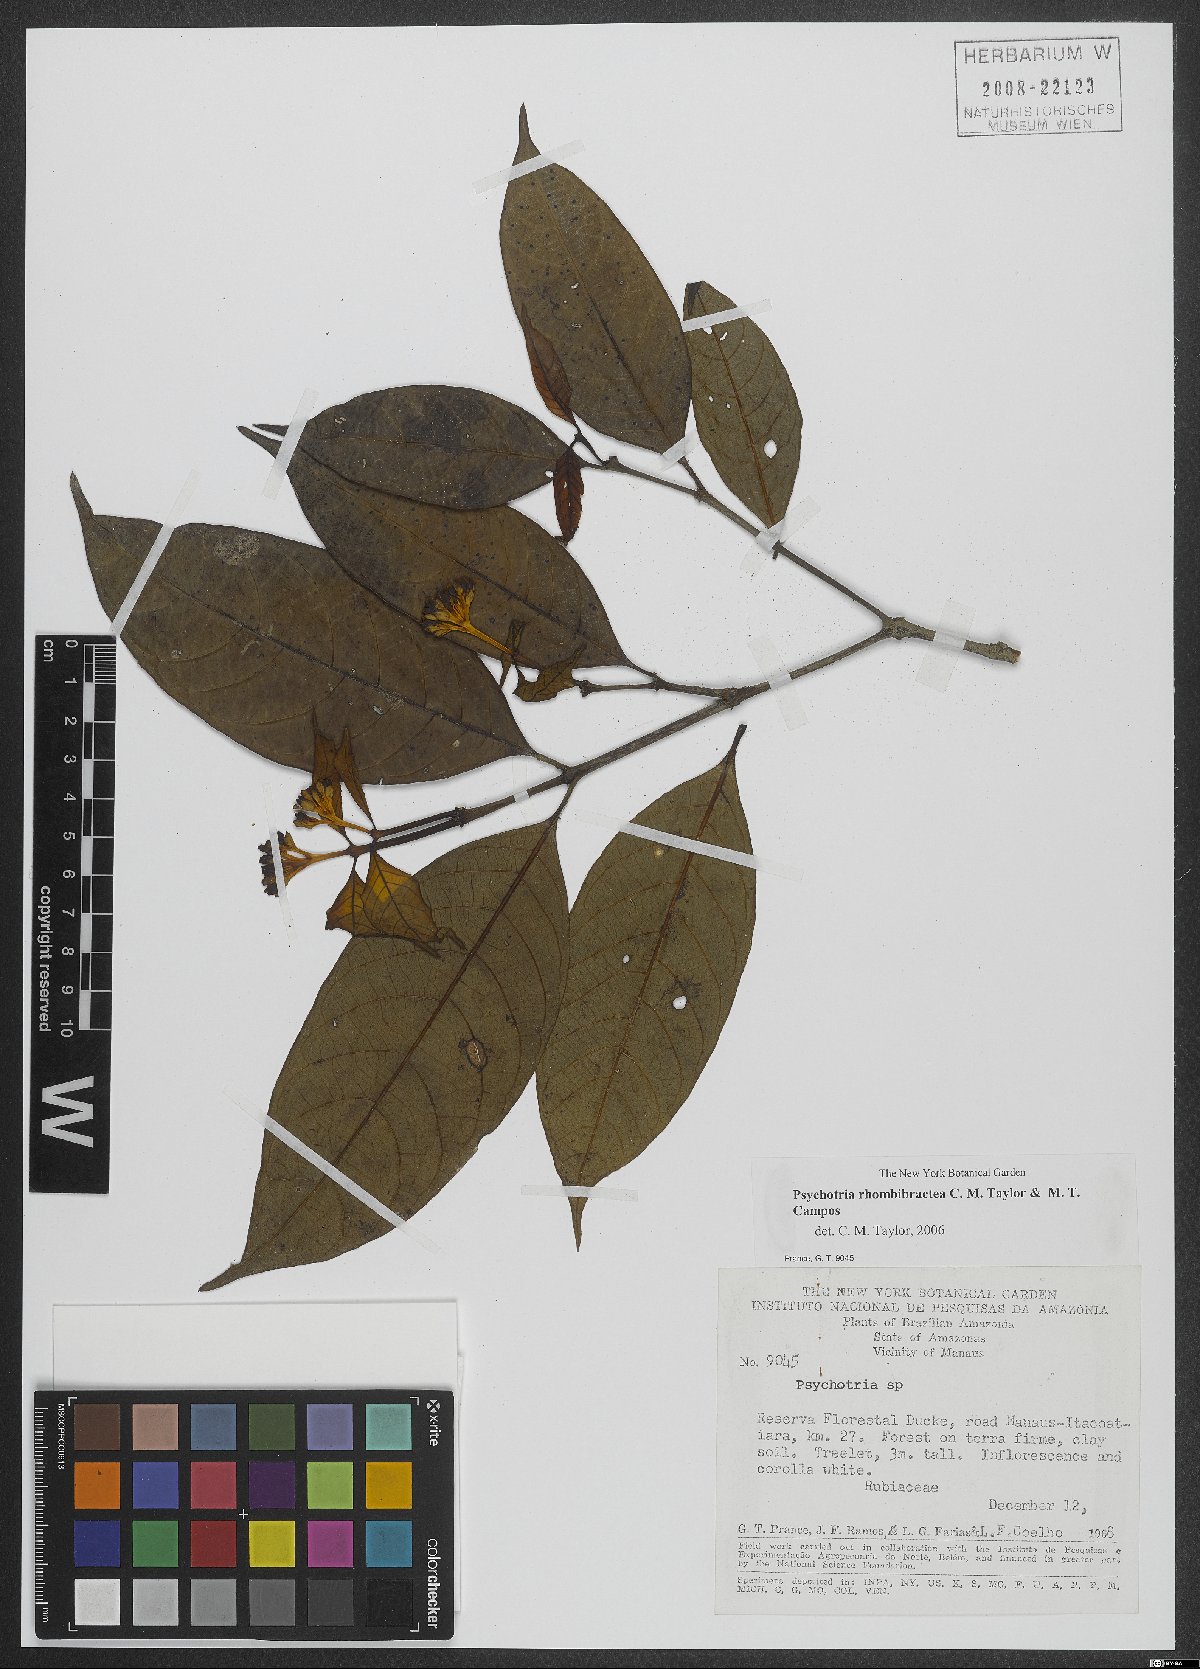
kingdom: Plantae
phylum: Tracheophyta
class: Magnoliopsida
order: Gentianales
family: Rubiaceae
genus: Psychotria
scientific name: Psychotria rhombibractea
